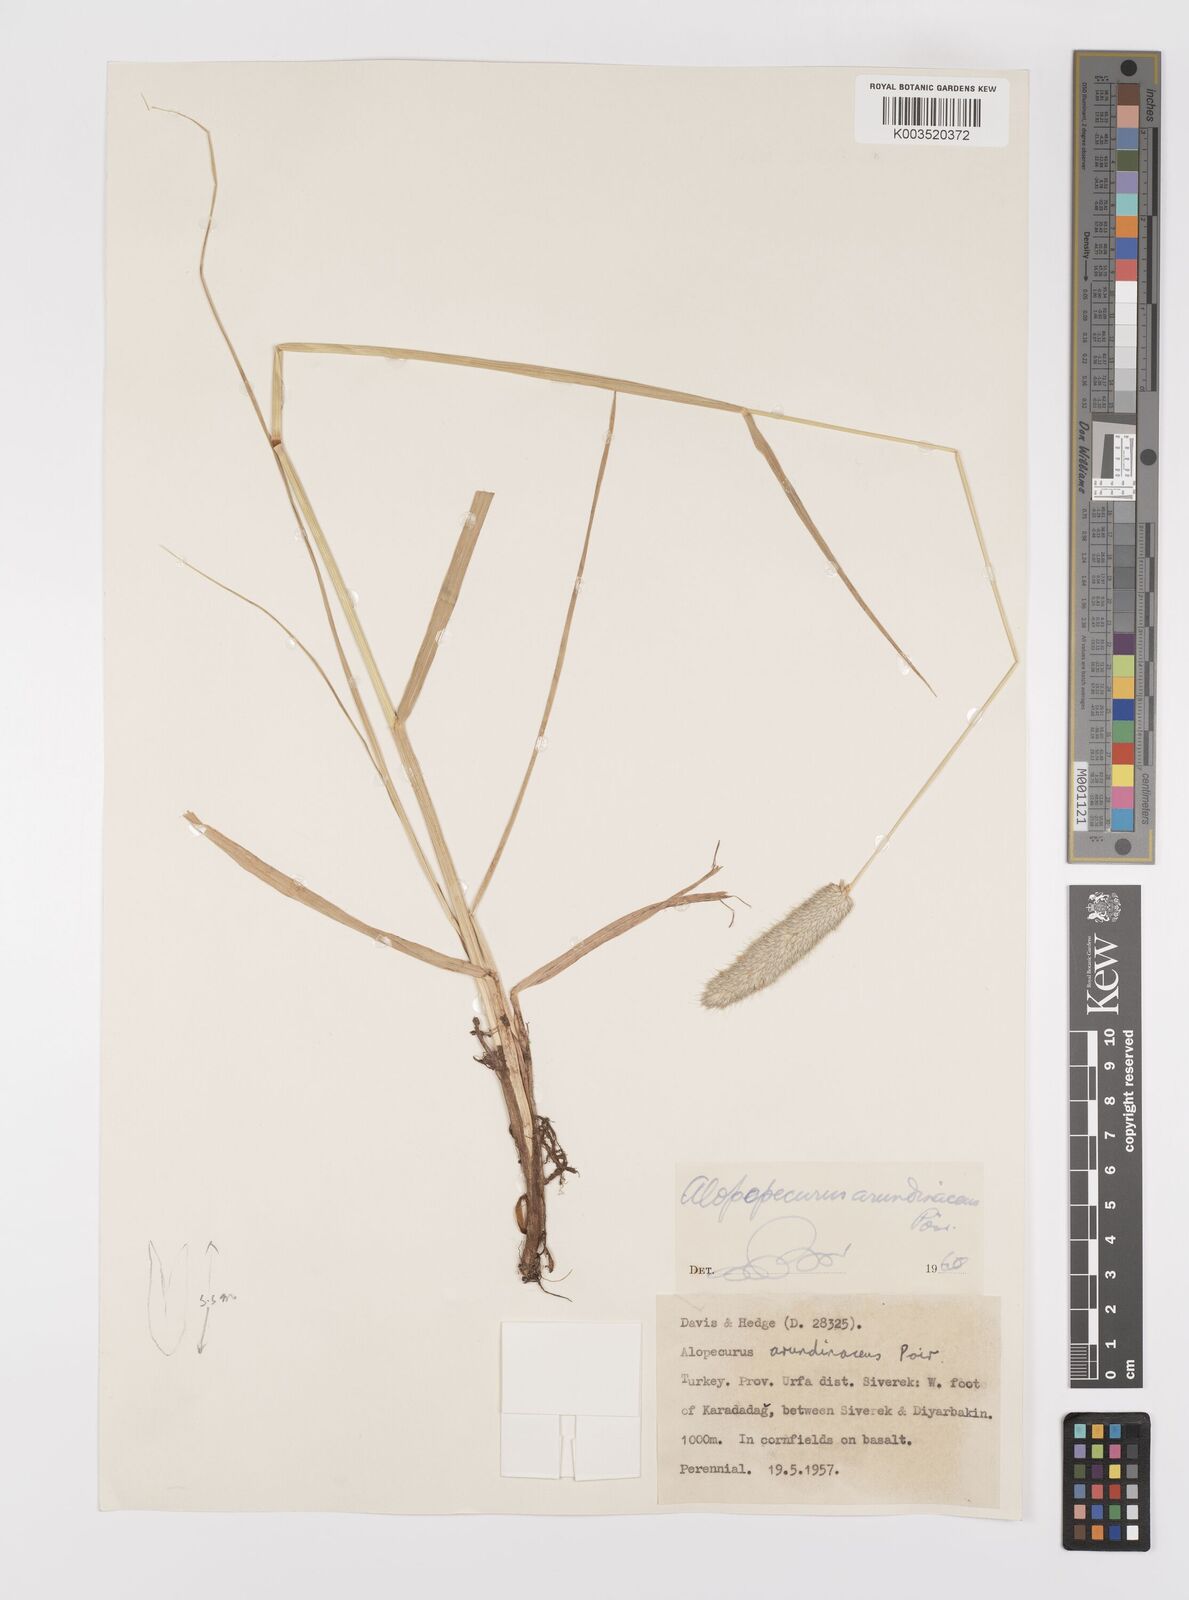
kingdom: Plantae
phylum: Tracheophyta
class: Liliopsida
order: Poales
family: Poaceae
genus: Alopecurus
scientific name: Alopecurus arundinaceus
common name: Creeping meadow foxtail
